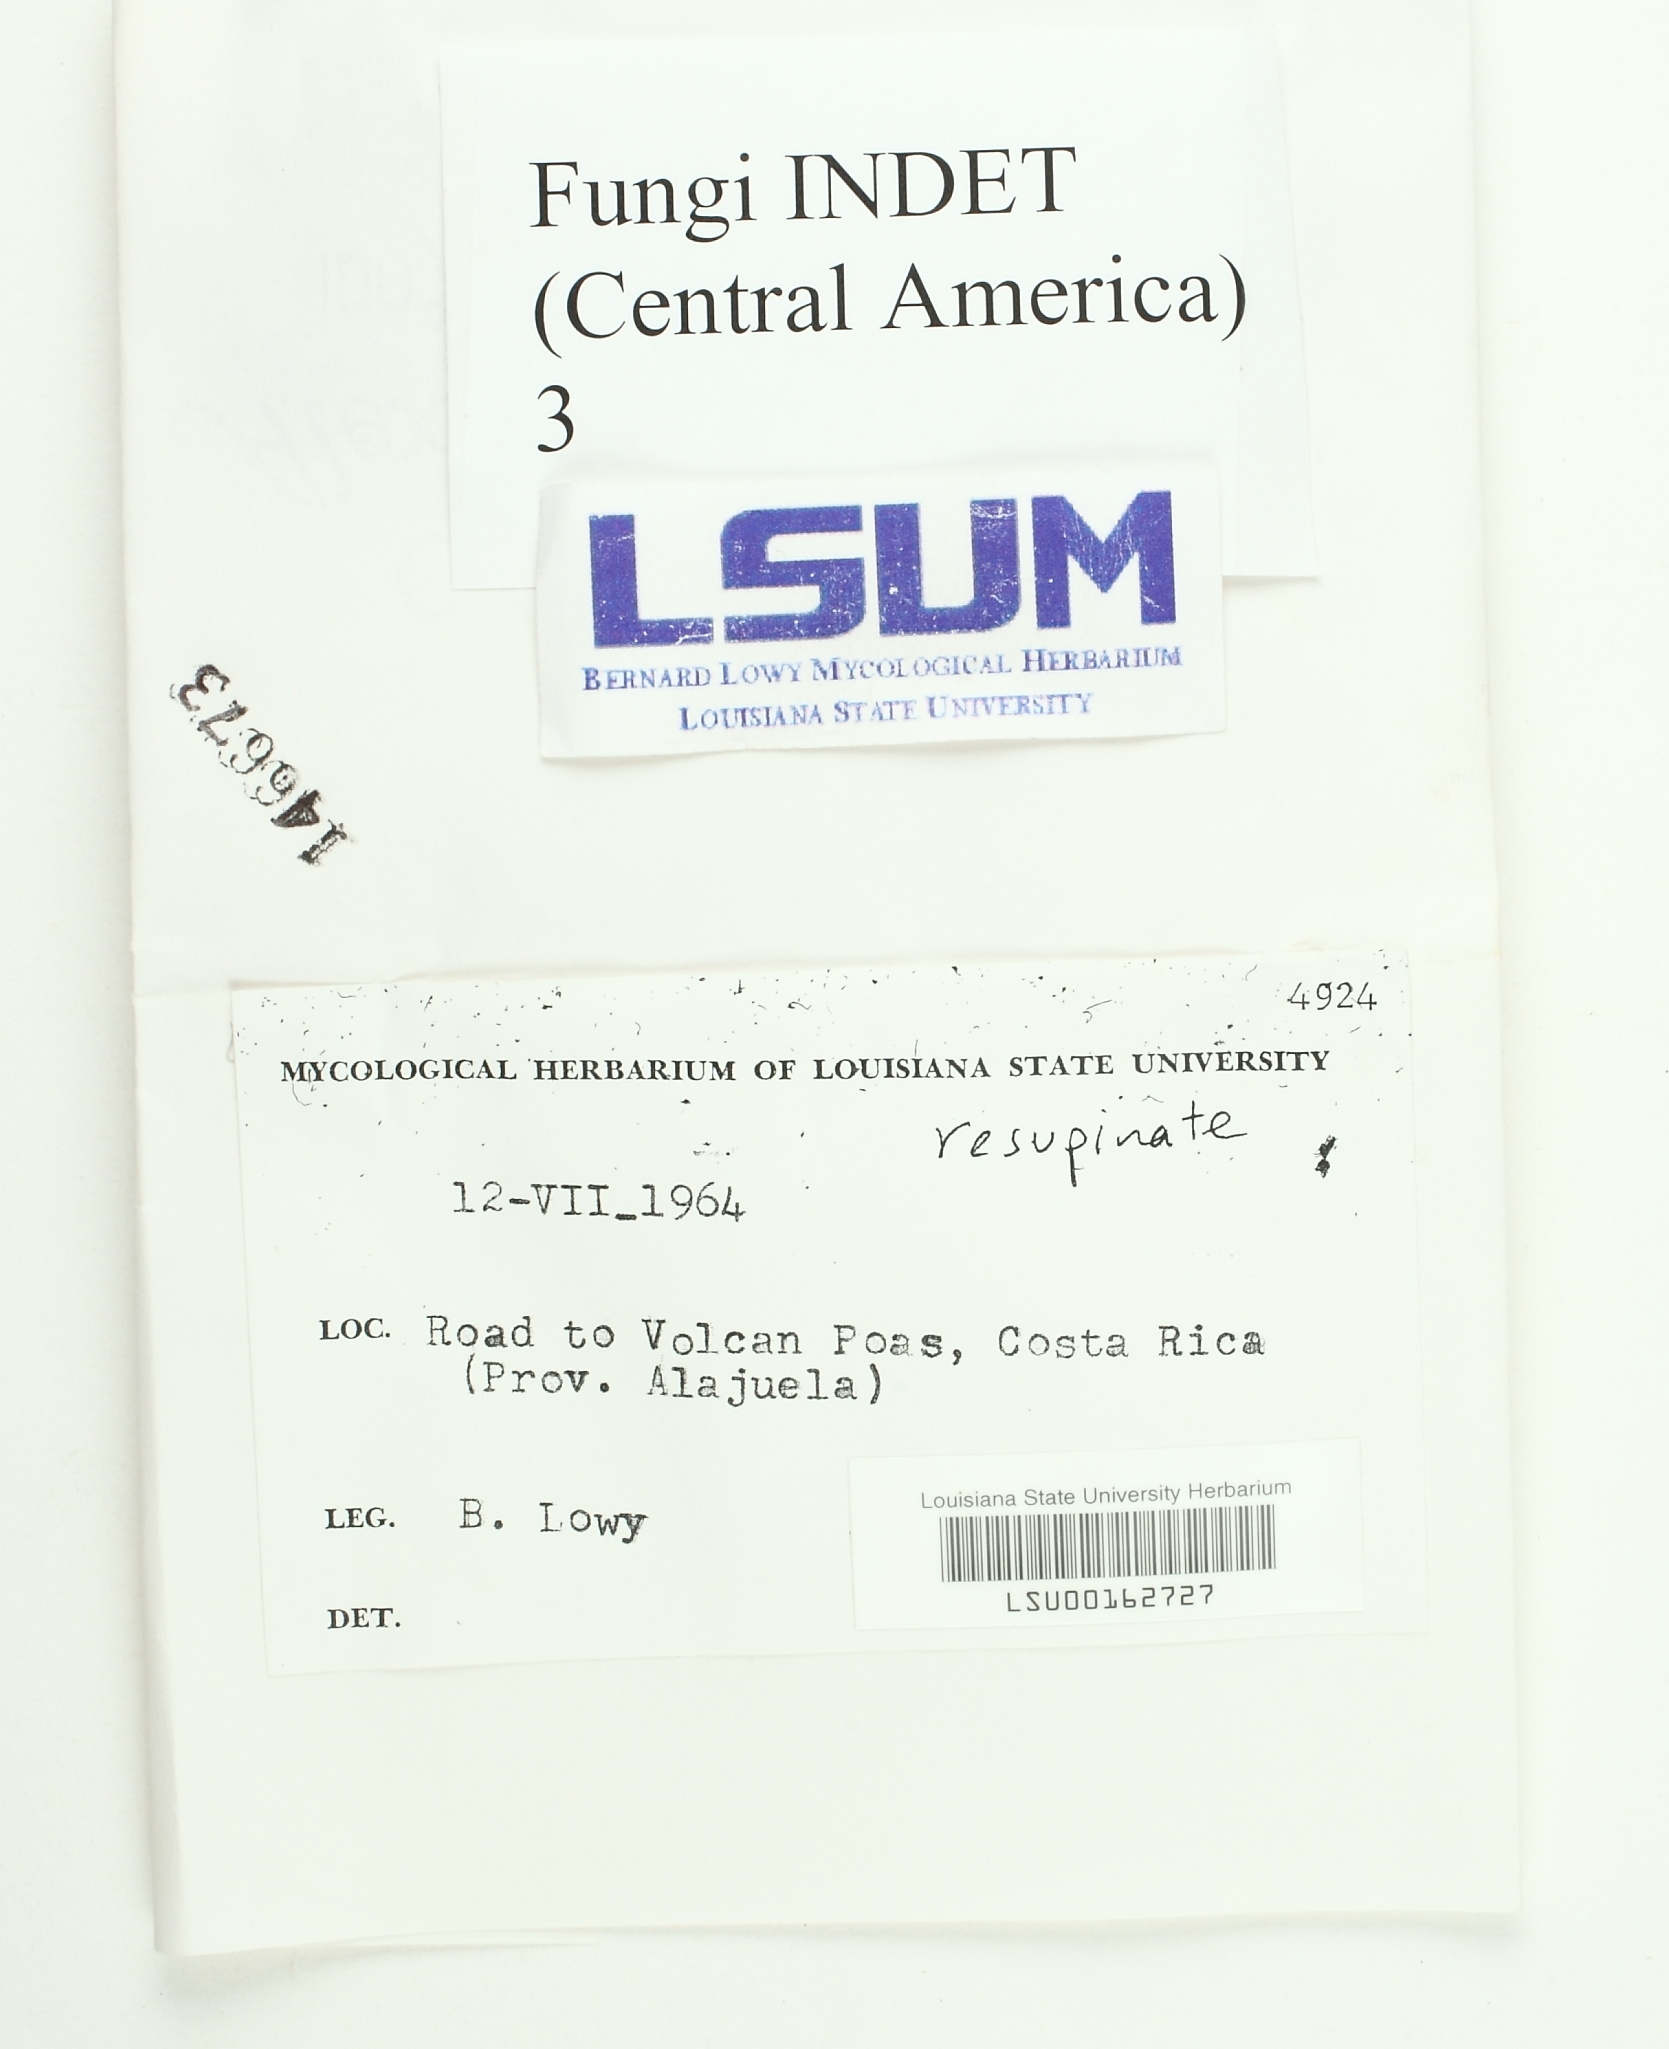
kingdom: Fungi
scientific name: Fungi
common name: Fungi
